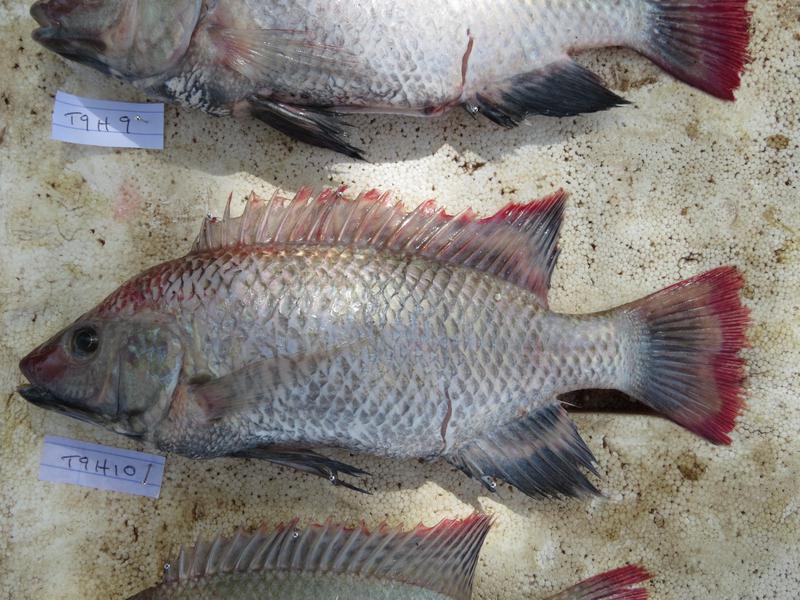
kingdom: Animalia
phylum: Chordata
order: Perciformes
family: Cichlidae
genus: Oreochromis
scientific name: Oreochromis rukwaensis
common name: Lake rukwa tilapia
